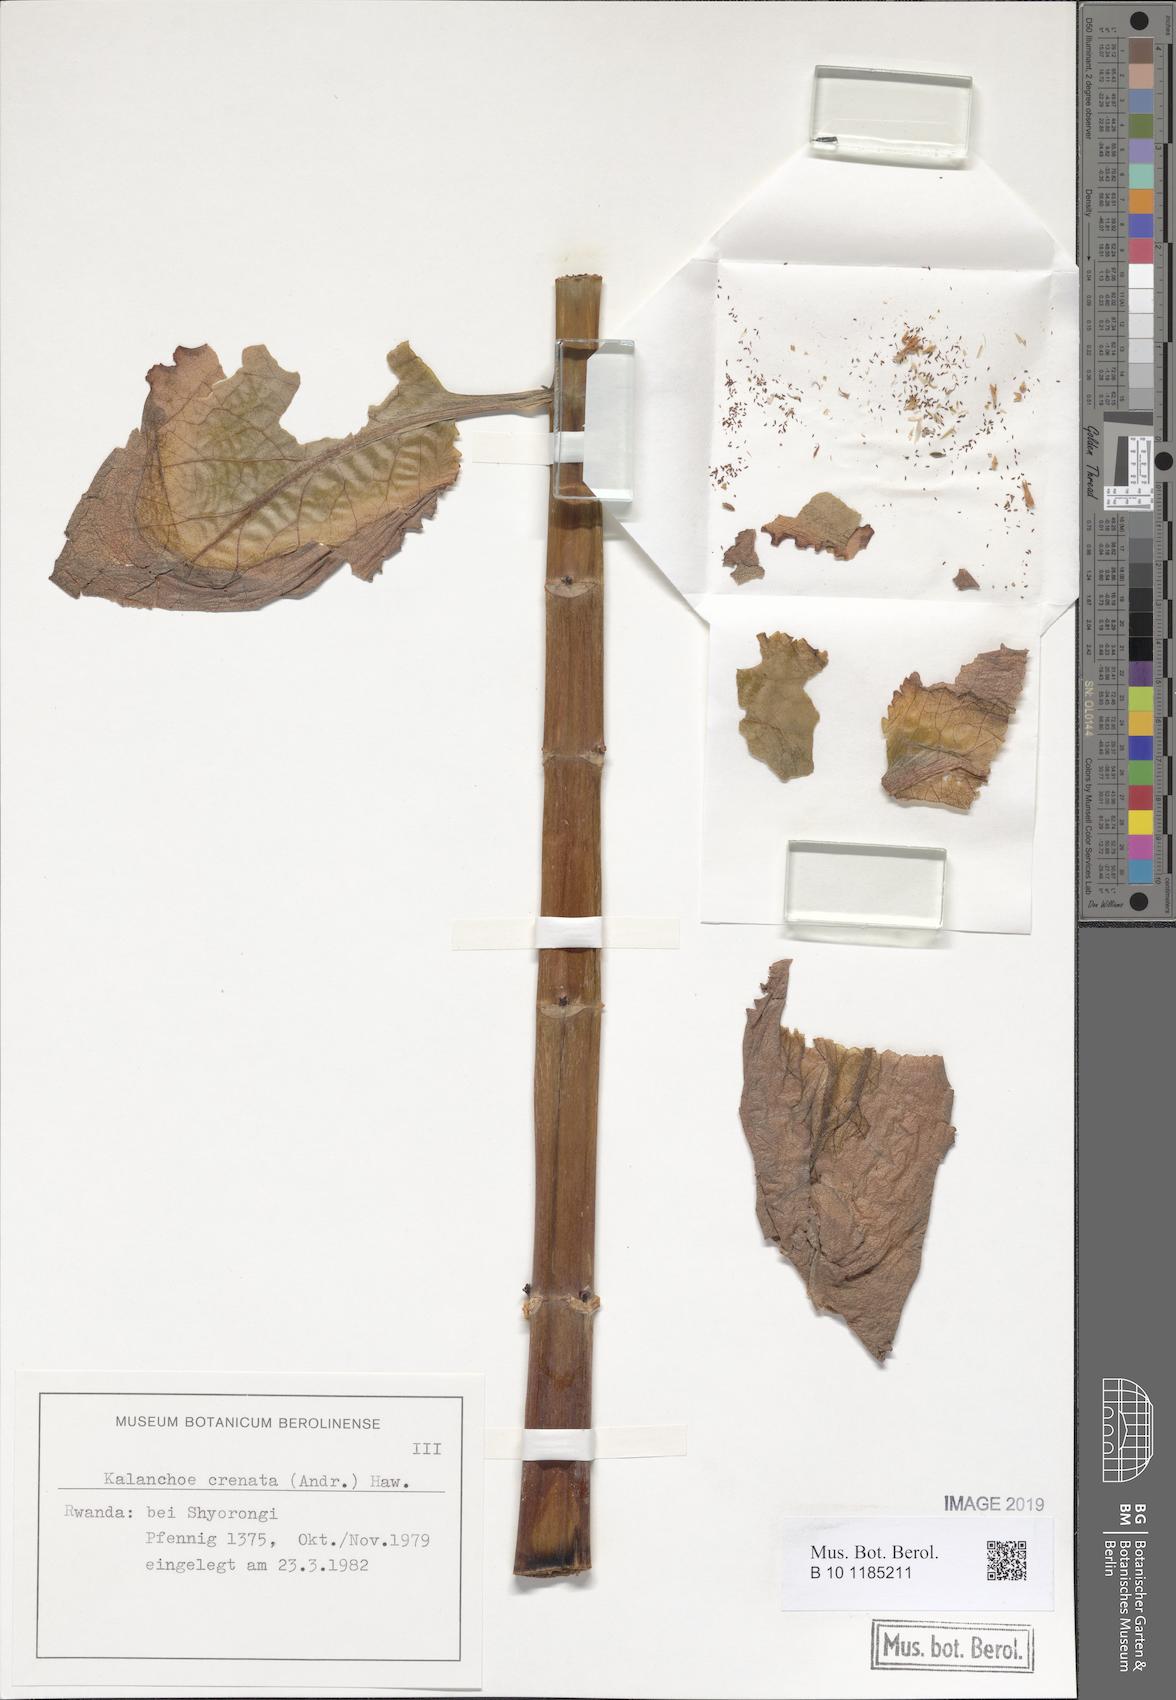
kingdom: Plantae
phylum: Tracheophyta
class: Magnoliopsida
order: Saxifragales
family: Crassulaceae
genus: Kalanchoe
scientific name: Kalanchoe crenata
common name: Neverdie
